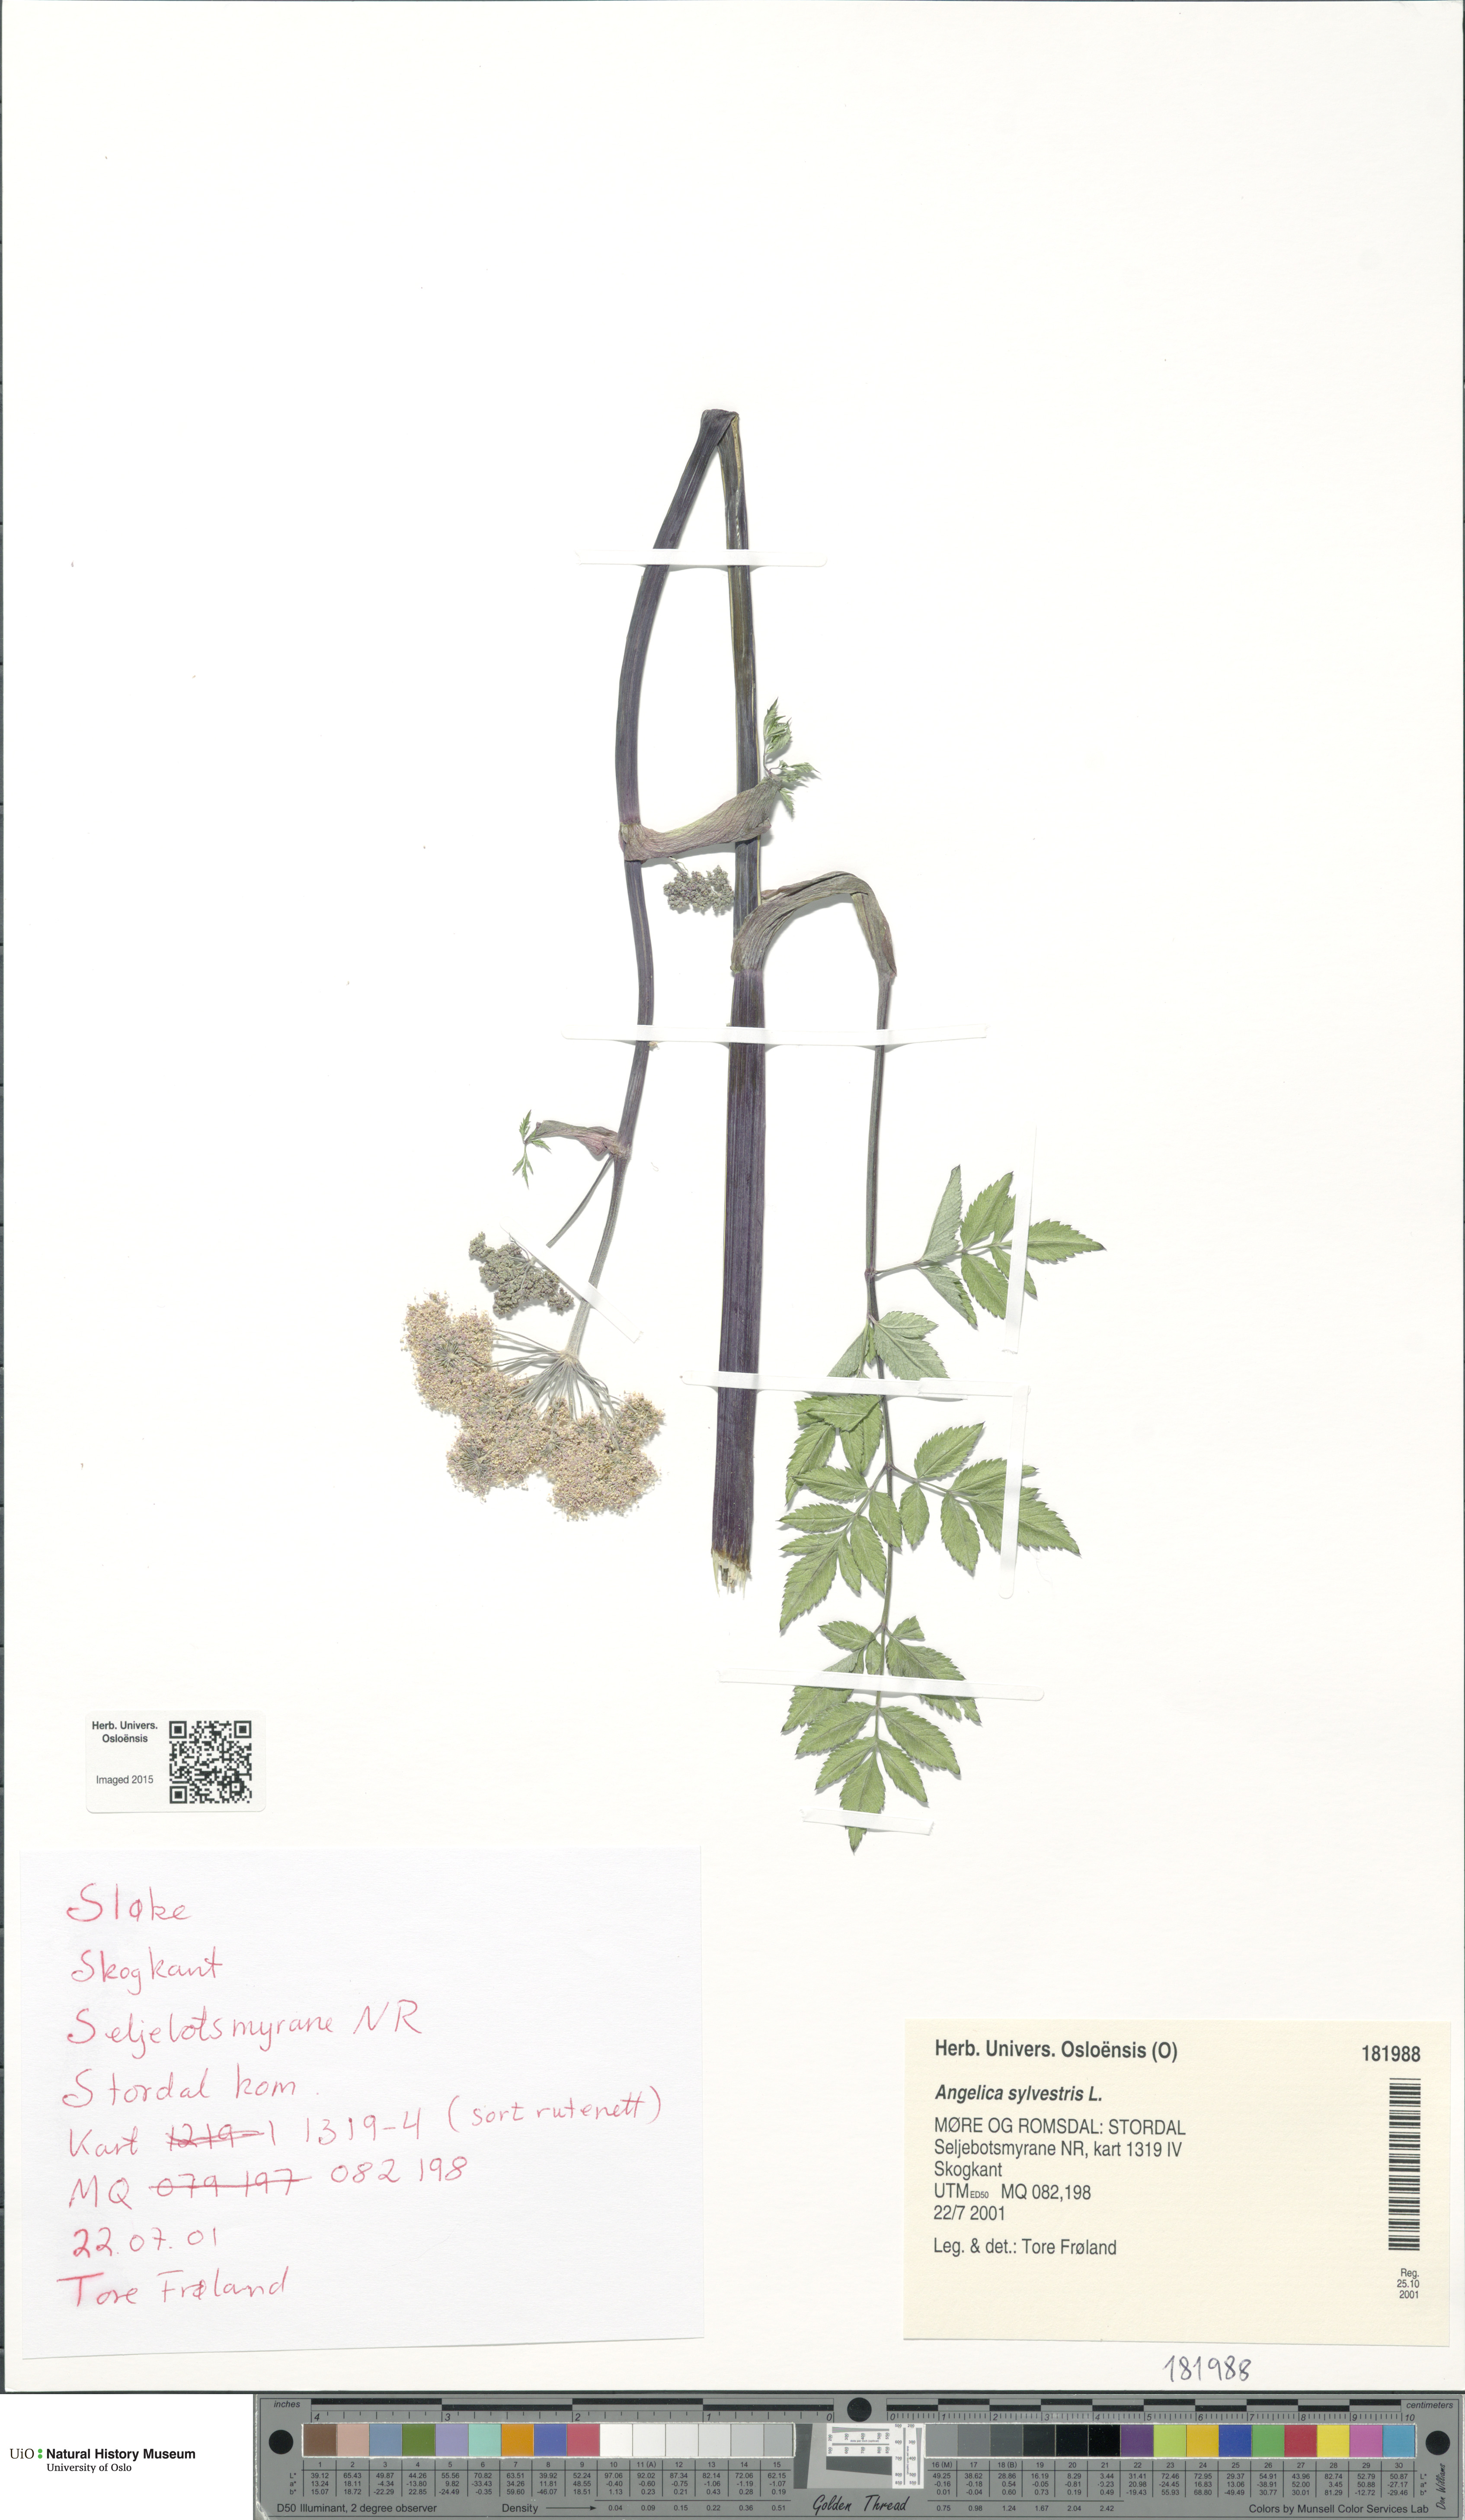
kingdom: Plantae
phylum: Tracheophyta
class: Magnoliopsida
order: Apiales
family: Apiaceae
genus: Angelica
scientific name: Angelica sylvestris
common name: Wild angelica
